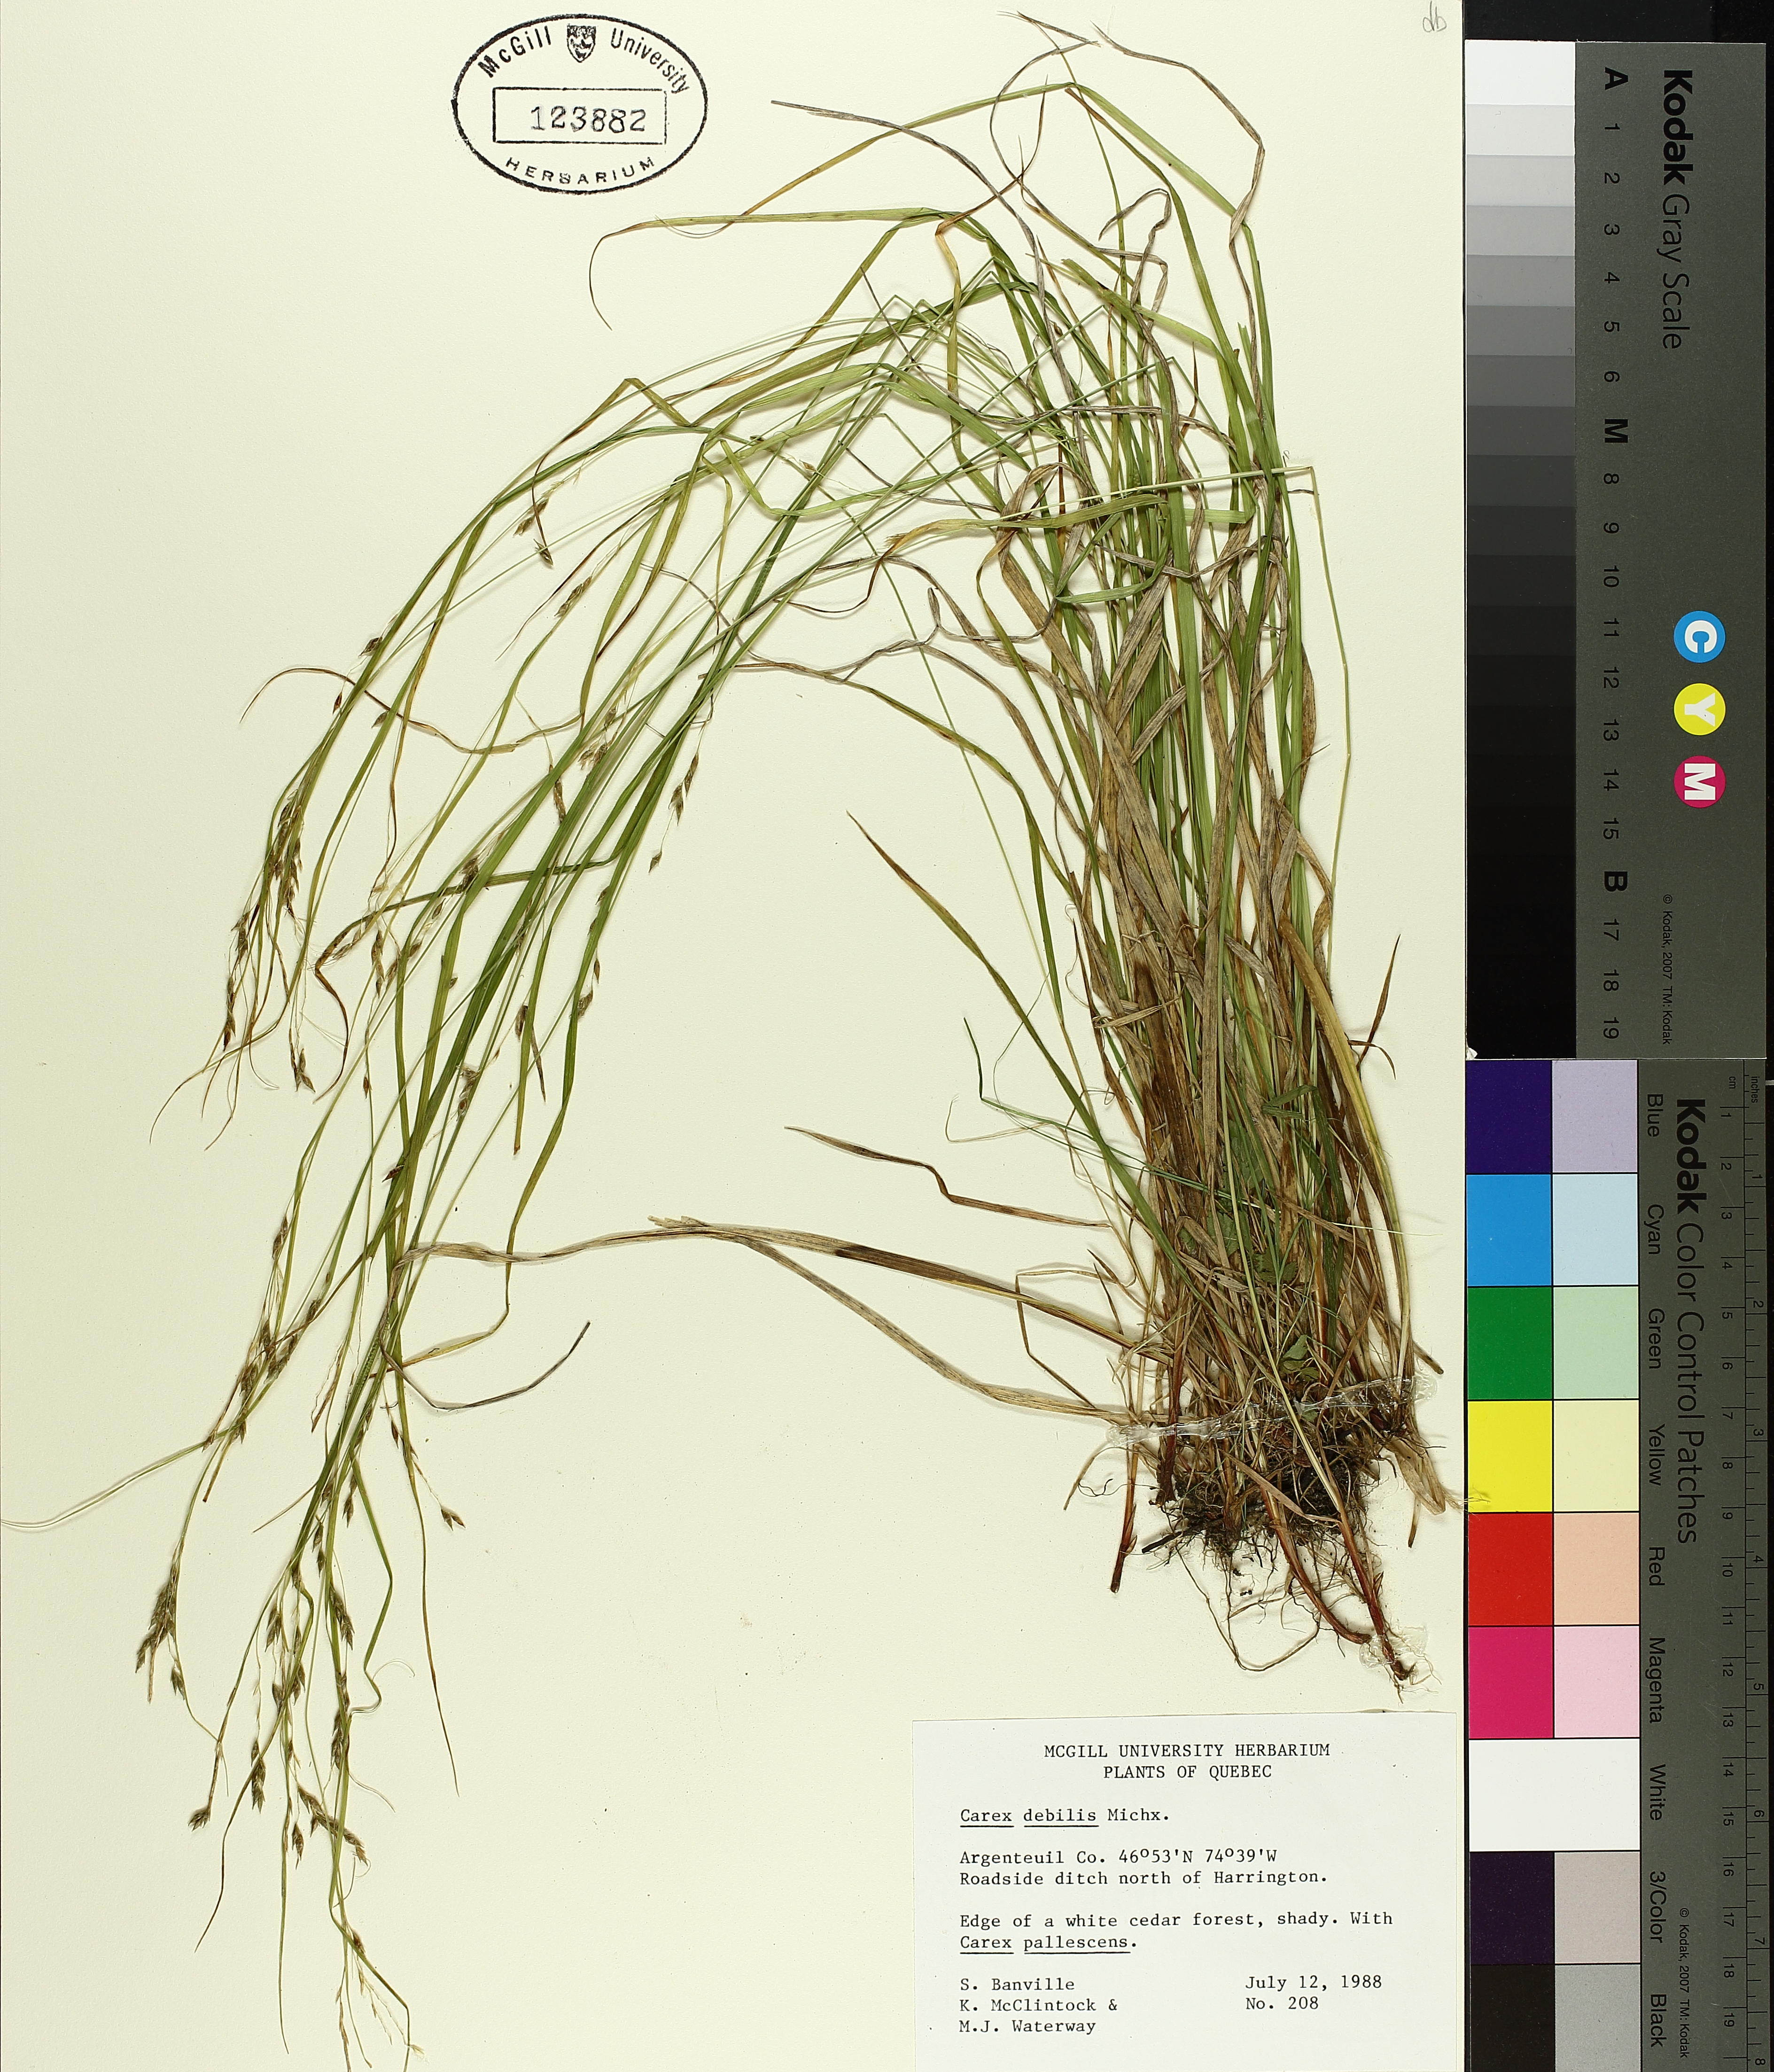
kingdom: Plantae
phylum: Tracheophyta
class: Liliopsida
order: Poales
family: Cyperaceae
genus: Carex
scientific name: Carex debilis
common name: White-edge sedge
